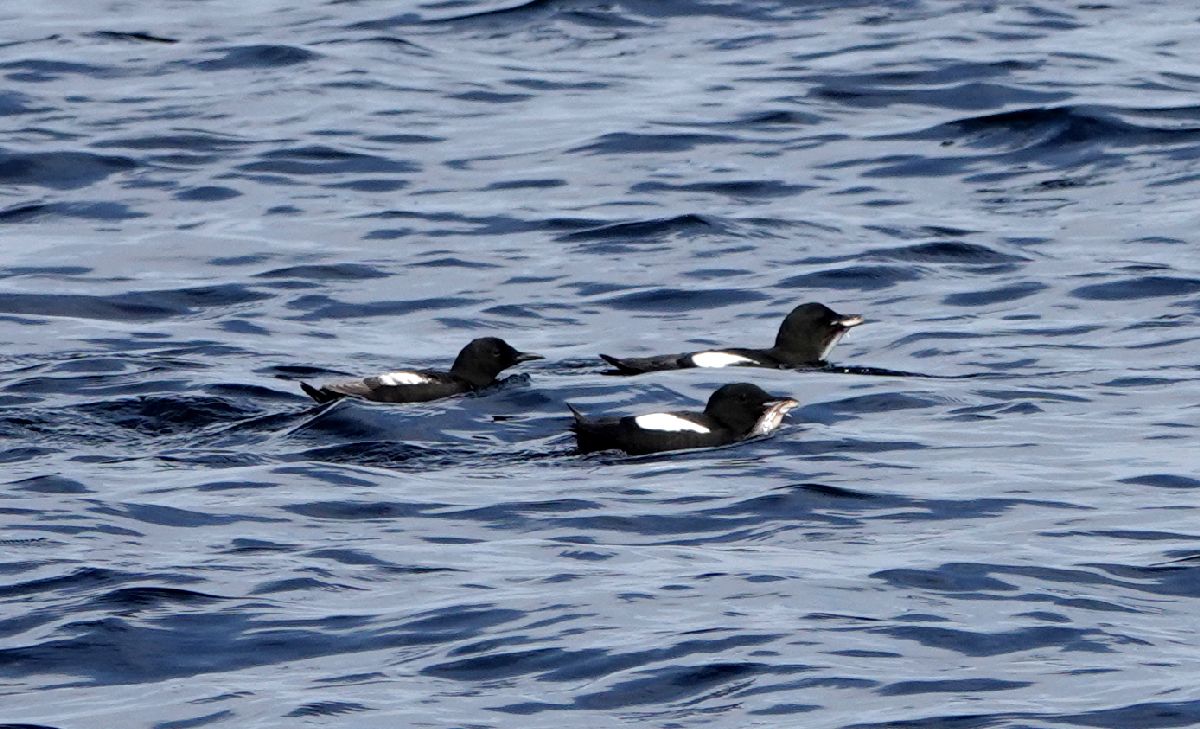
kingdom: Animalia
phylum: Chordata
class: Aves
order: Charadriiformes
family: Alcidae
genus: Cepphus
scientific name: Cepphus grylle
